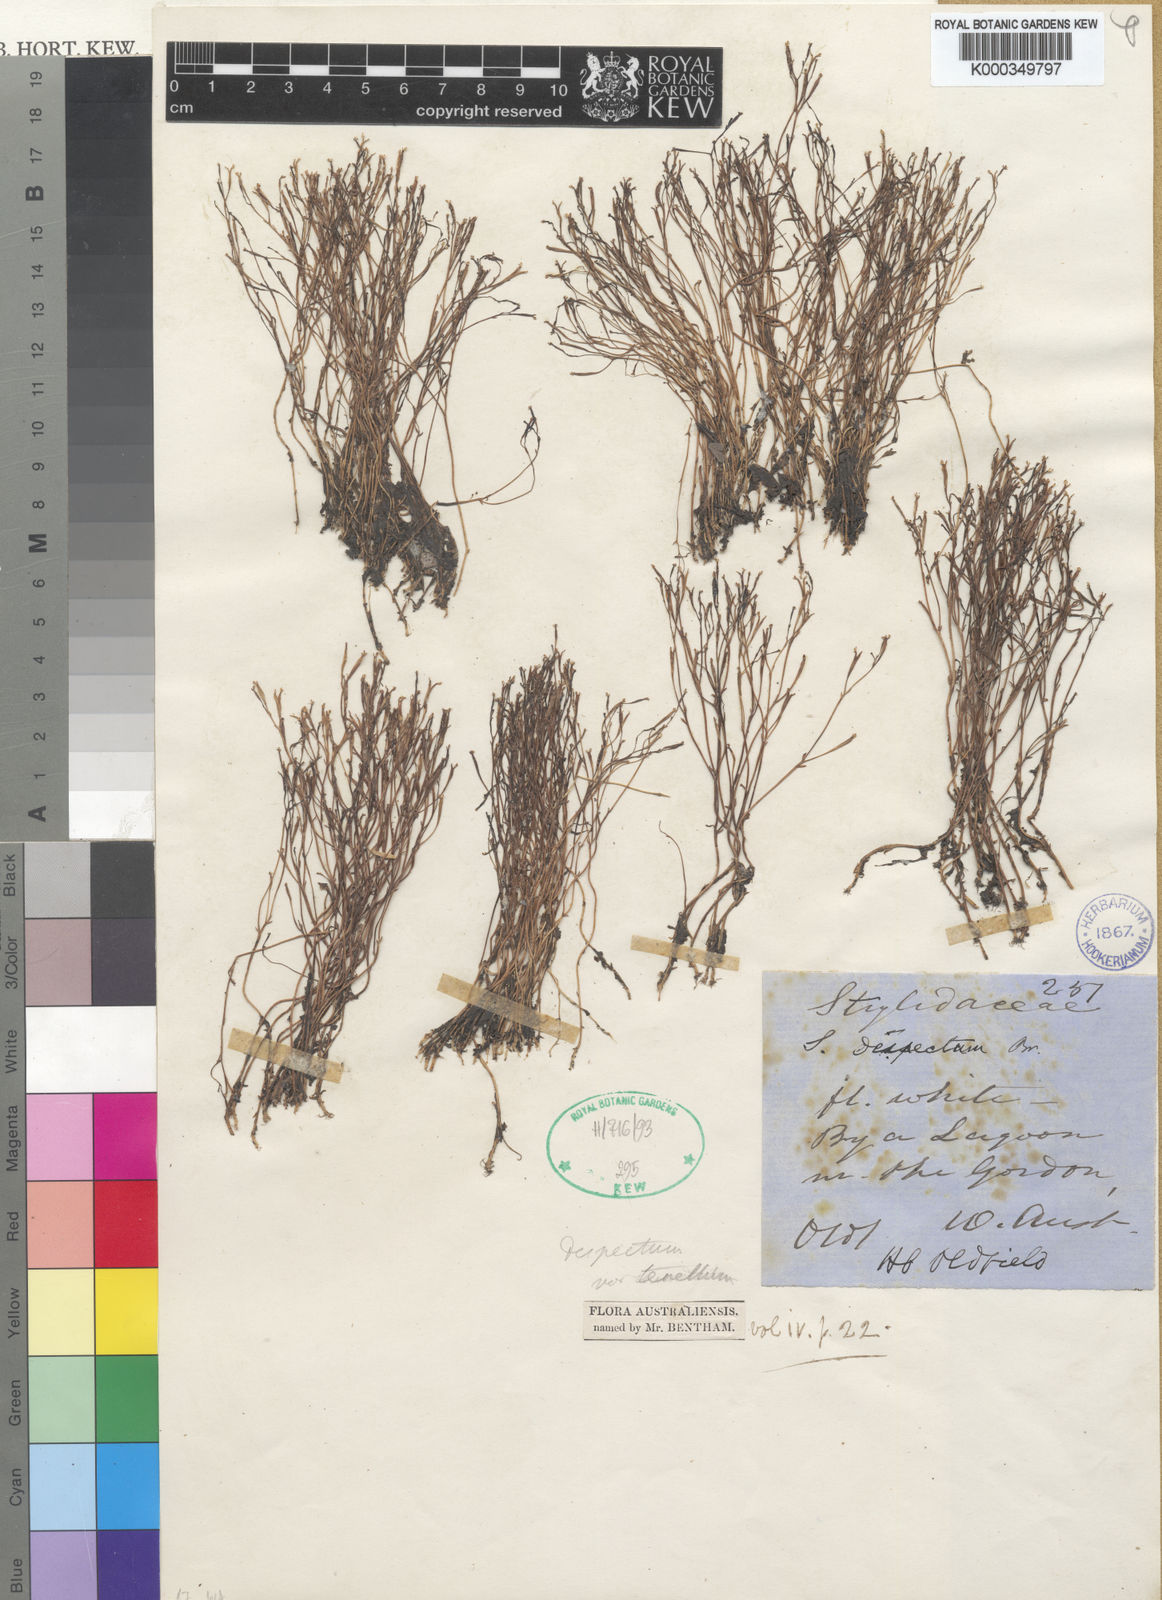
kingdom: Plantae
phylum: Tracheophyta
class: Magnoliopsida
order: Asterales
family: Stylidiaceae
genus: Stylidium
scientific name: Stylidium despectum
